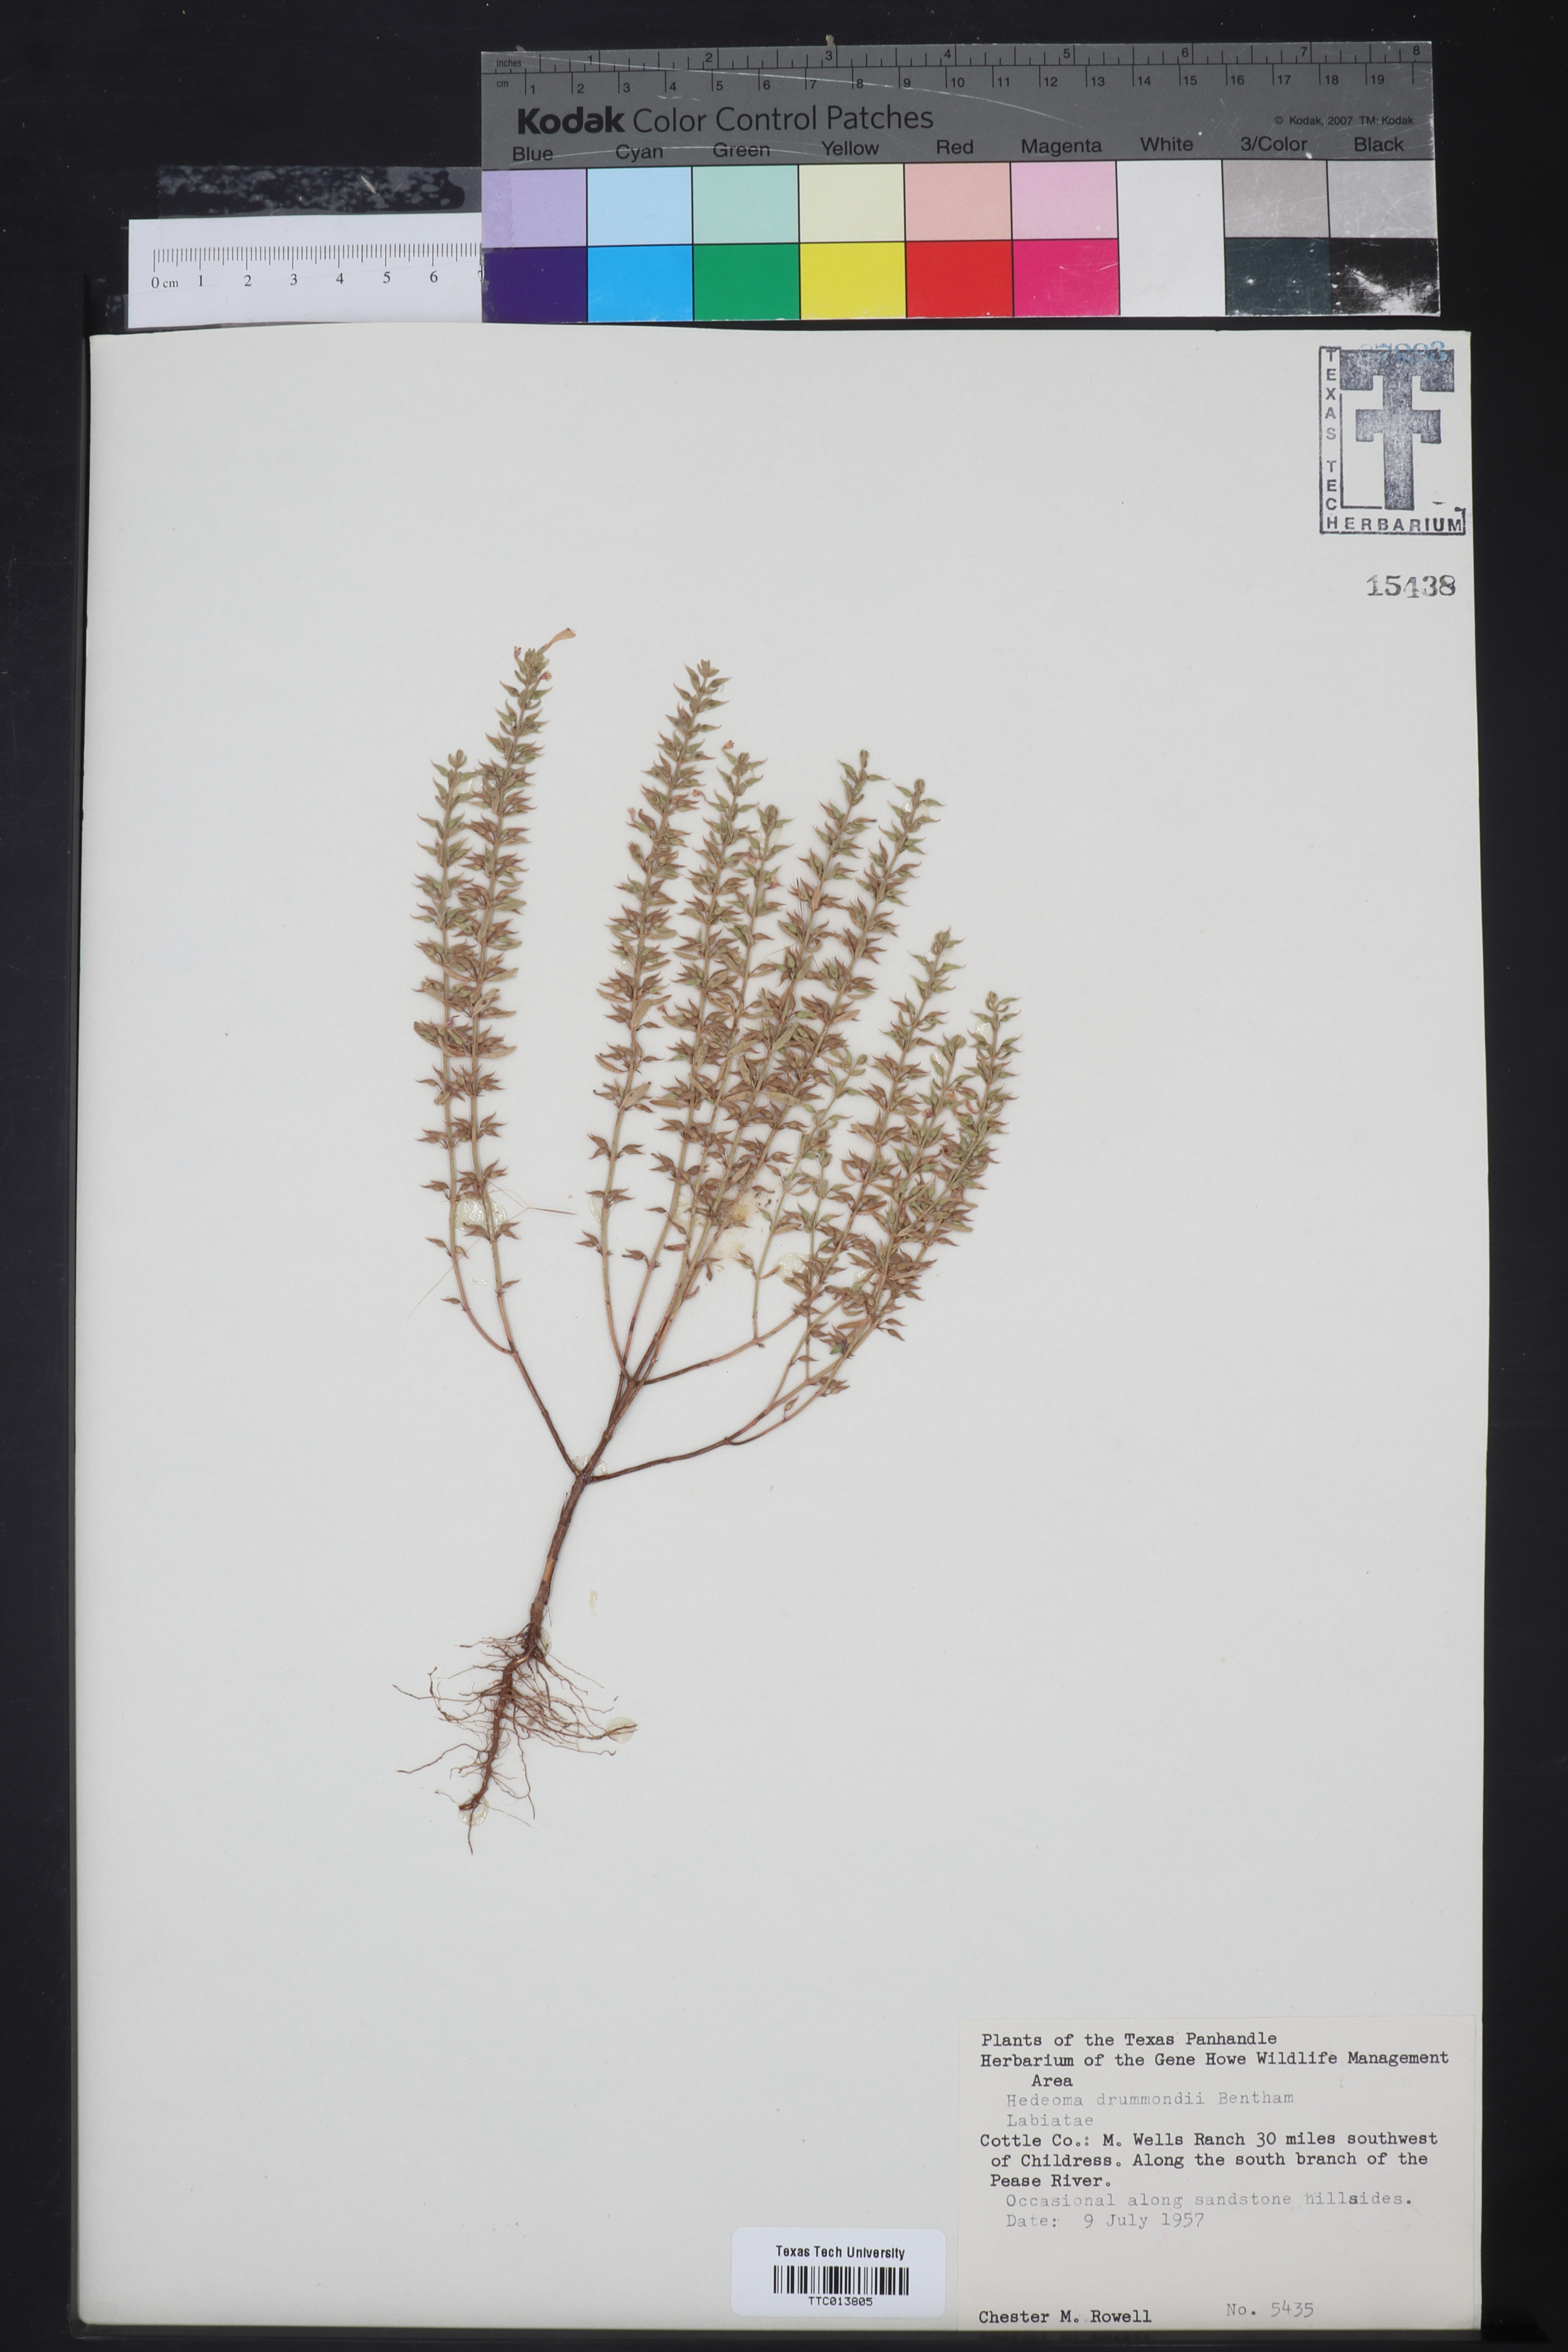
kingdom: Plantae
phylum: Tracheophyta
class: Magnoliopsida
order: Lamiales
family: Lamiaceae
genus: Hedeoma
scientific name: Hedeoma drummondii
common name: New mexico pennyroyal
